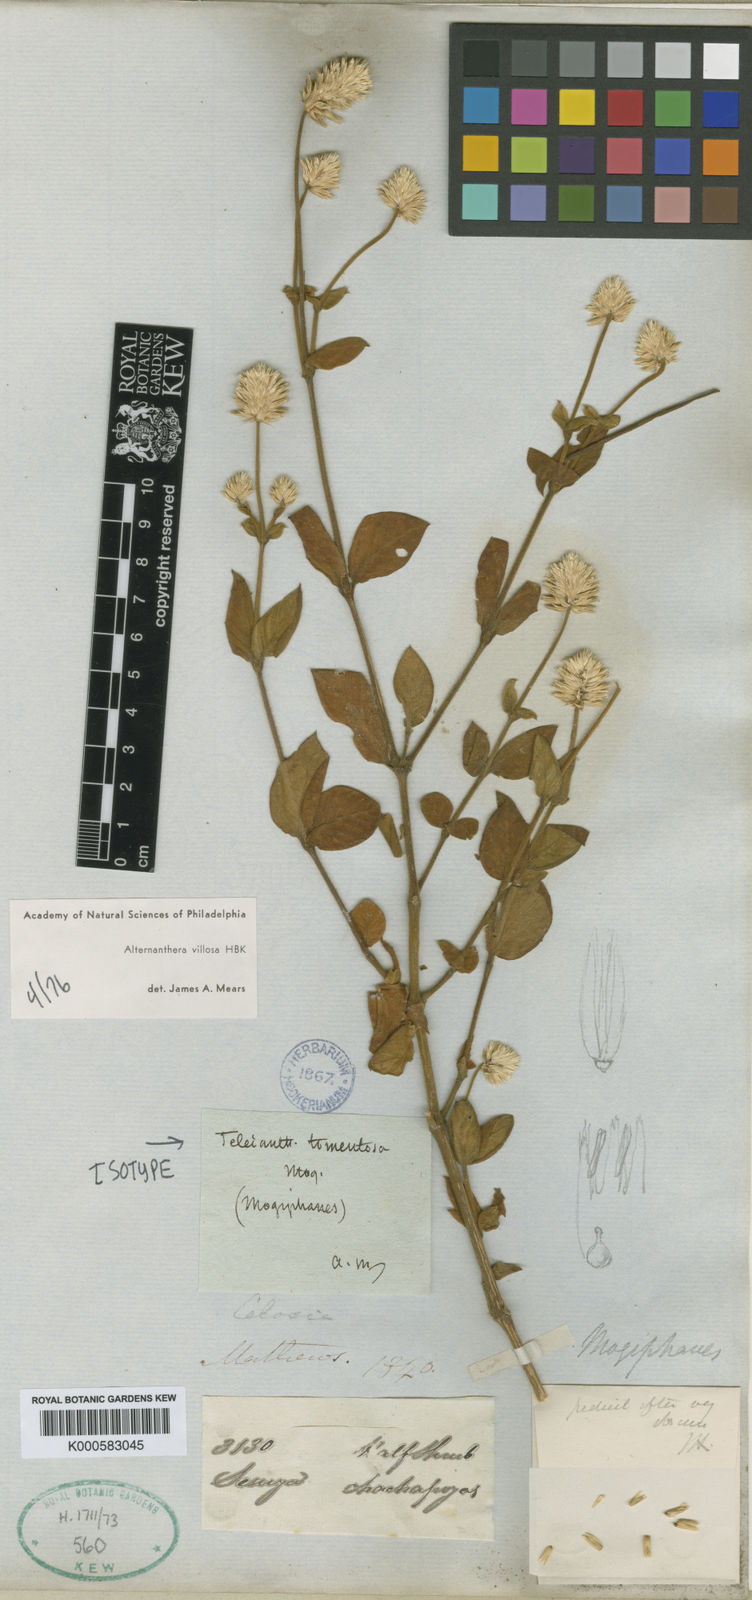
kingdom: Plantae
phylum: Tracheophyta
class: Magnoliopsida
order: Caryophyllales
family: Amaranthaceae
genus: Alternanthera
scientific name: Alternanthera villosa
